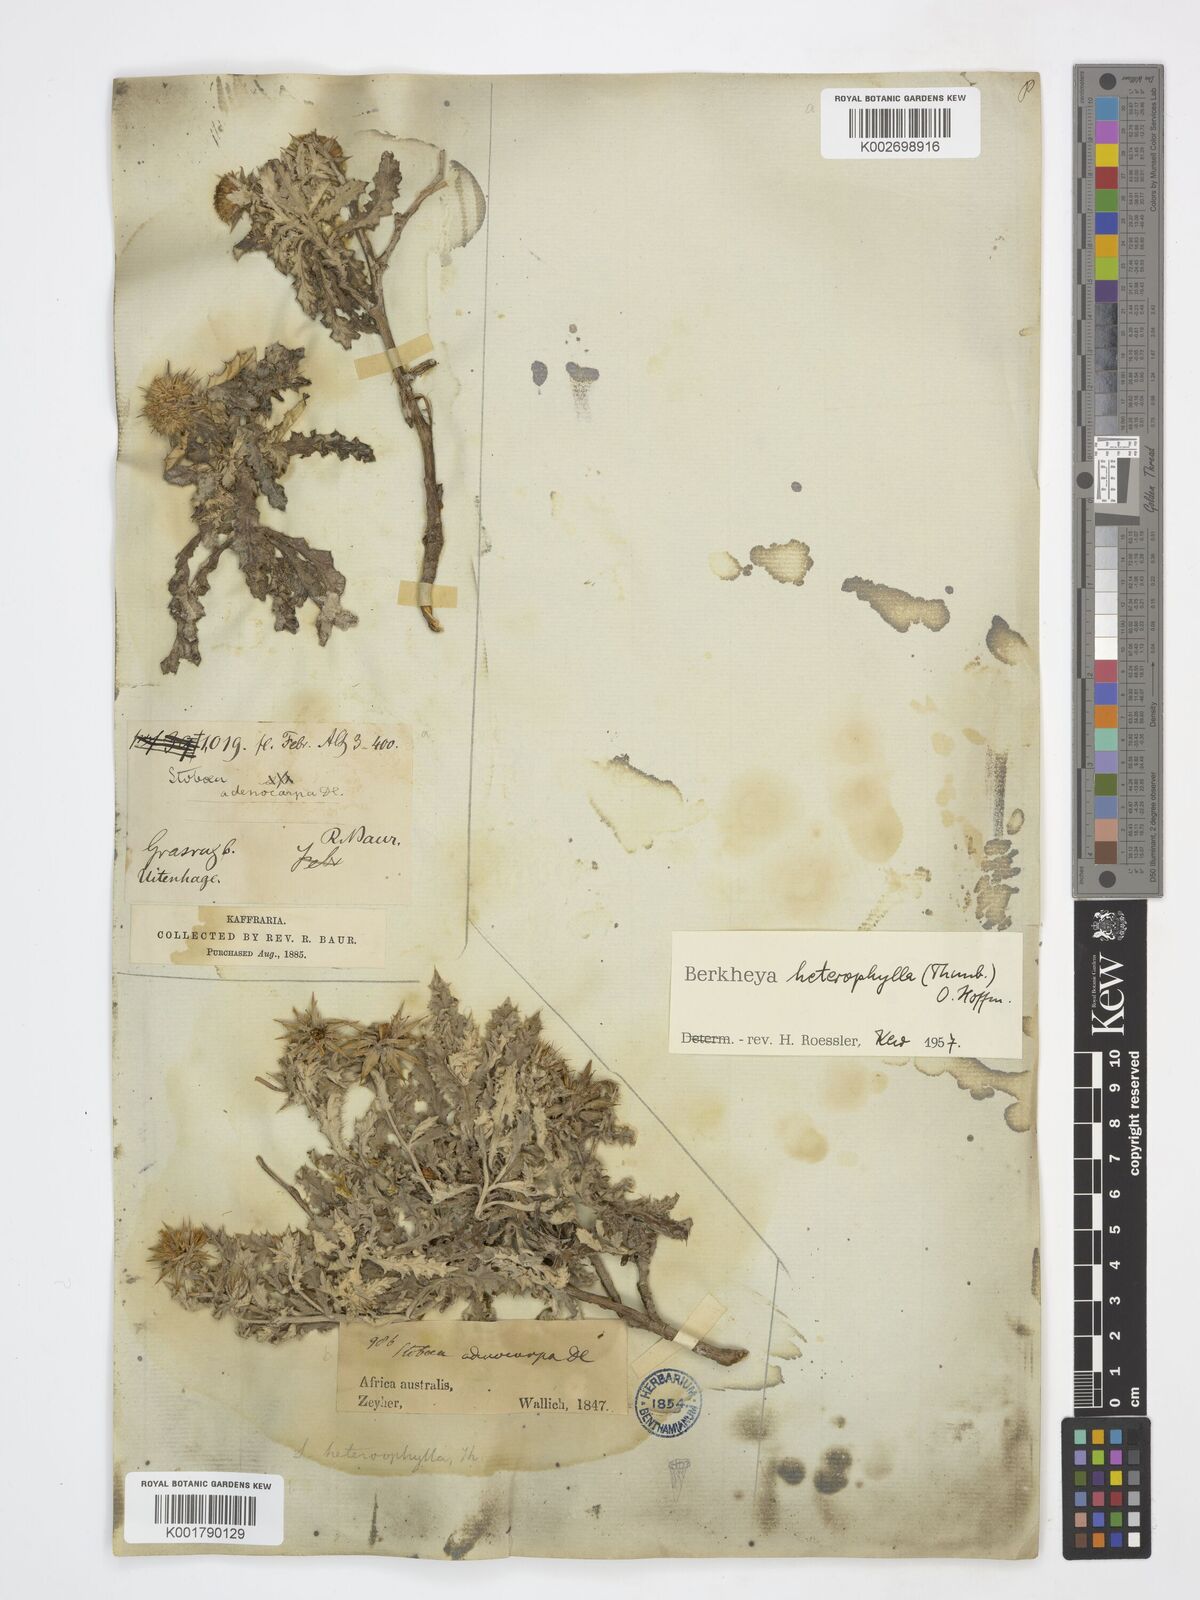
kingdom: Plantae
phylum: Tracheophyta
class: Magnoliopsida
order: Asterales
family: Asteraceae
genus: Berkheya
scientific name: Berkheya heterophylla
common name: Prickly gousblom
